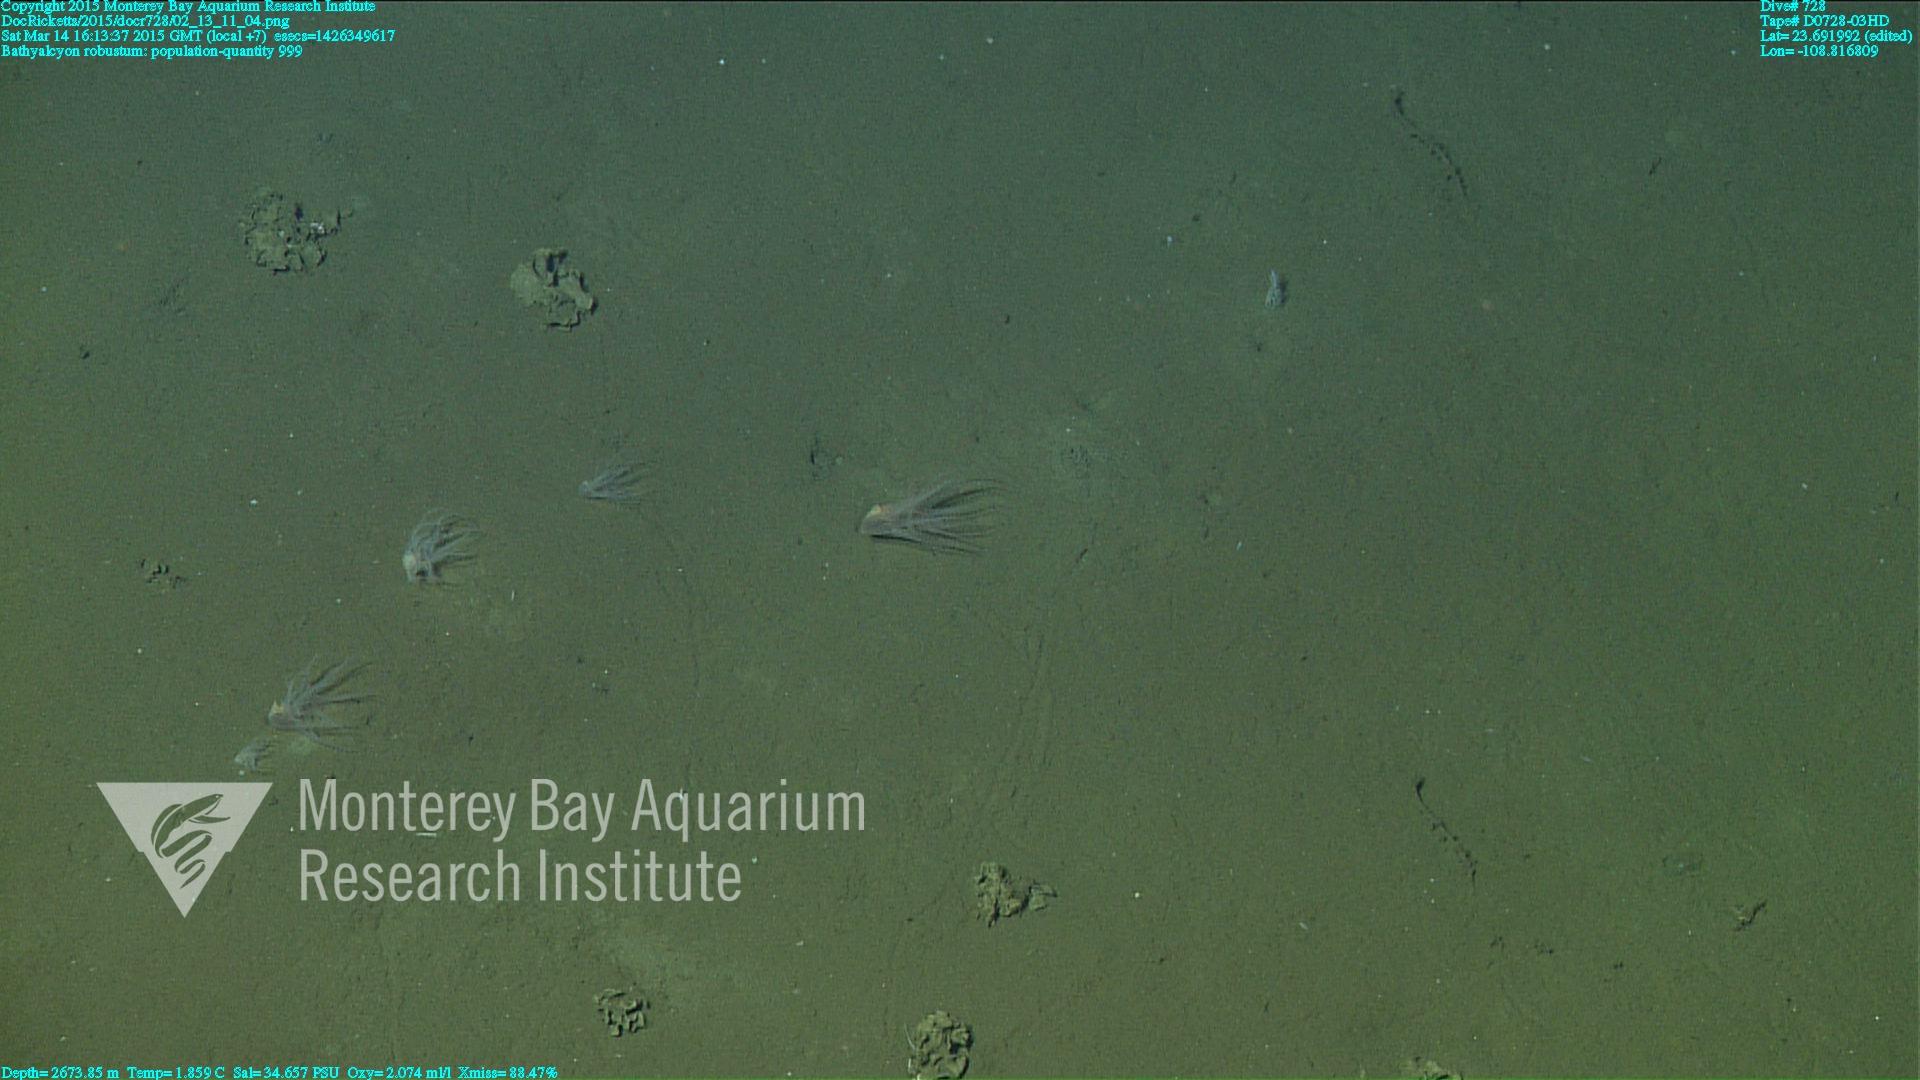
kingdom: Animalia
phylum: Cnidaria
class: Anthozoa
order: Scleralcyonacea
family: Coralliidae
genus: Bathyalcyon
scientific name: Bathyalcyon robustum
